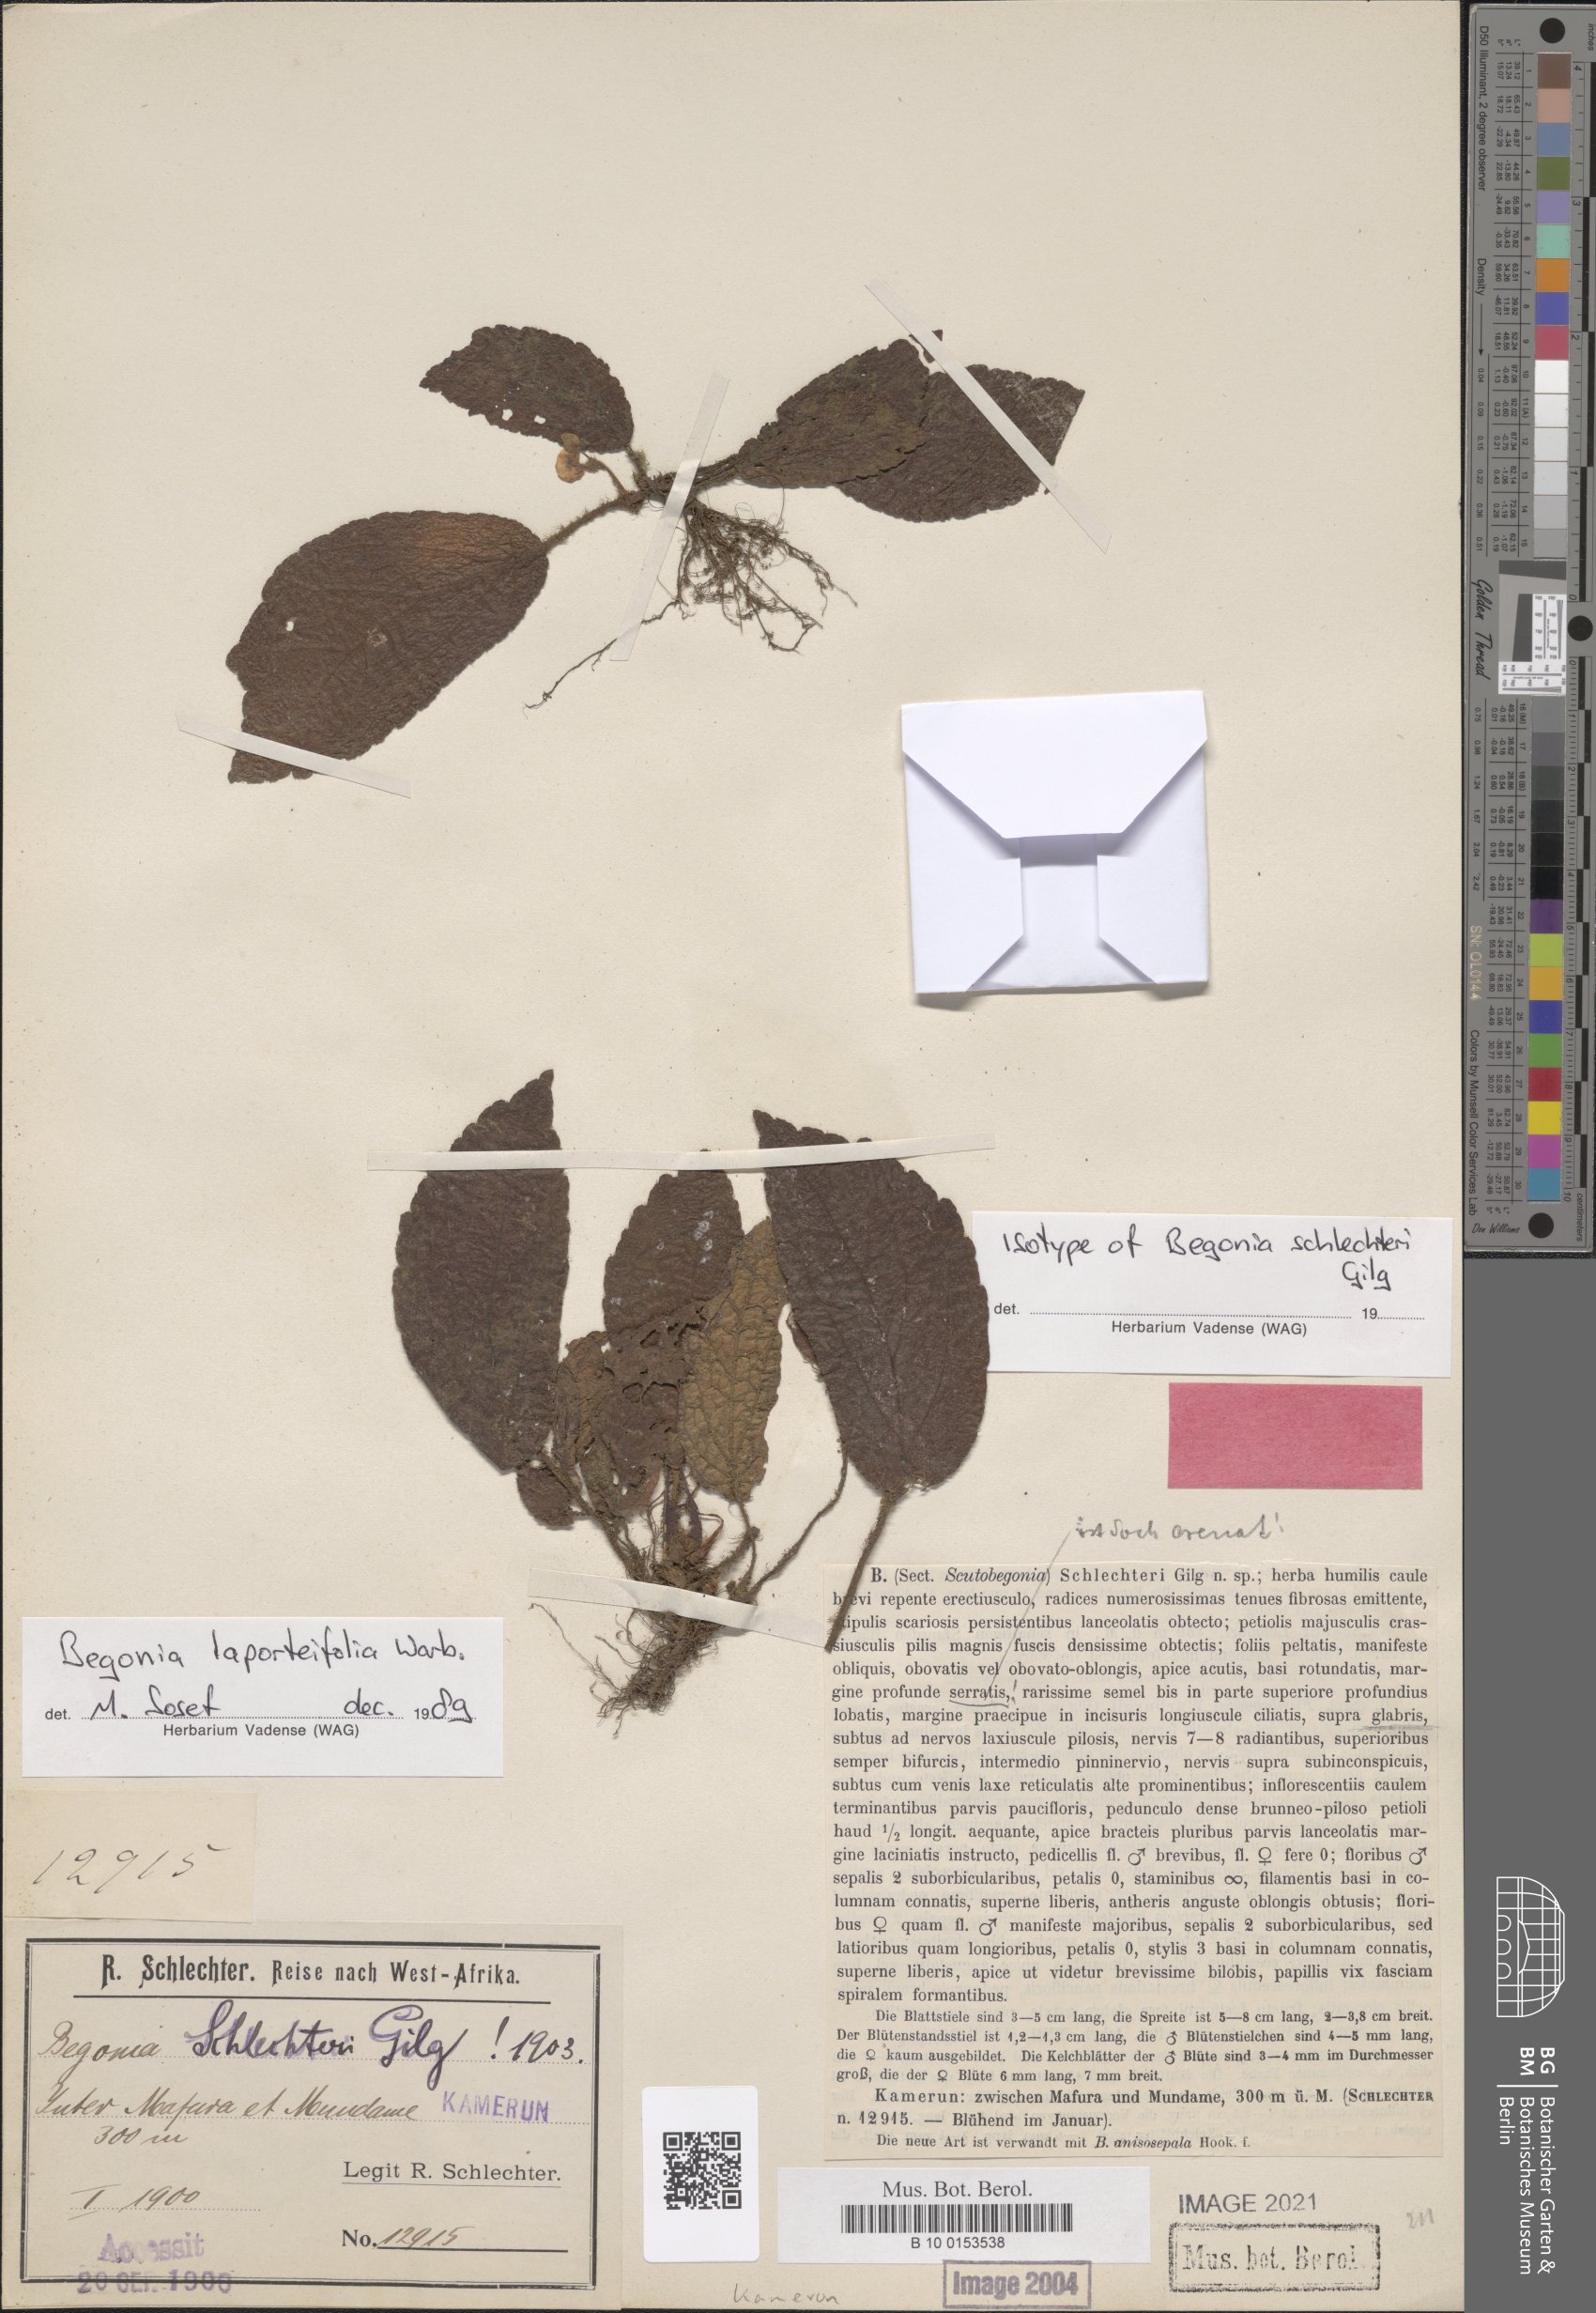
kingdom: Plantae
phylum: Tracheophyta
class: Magnoliopsida
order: Cucurbitales
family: Begoniaceae
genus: Begonia
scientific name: Begonia laporteifolia
